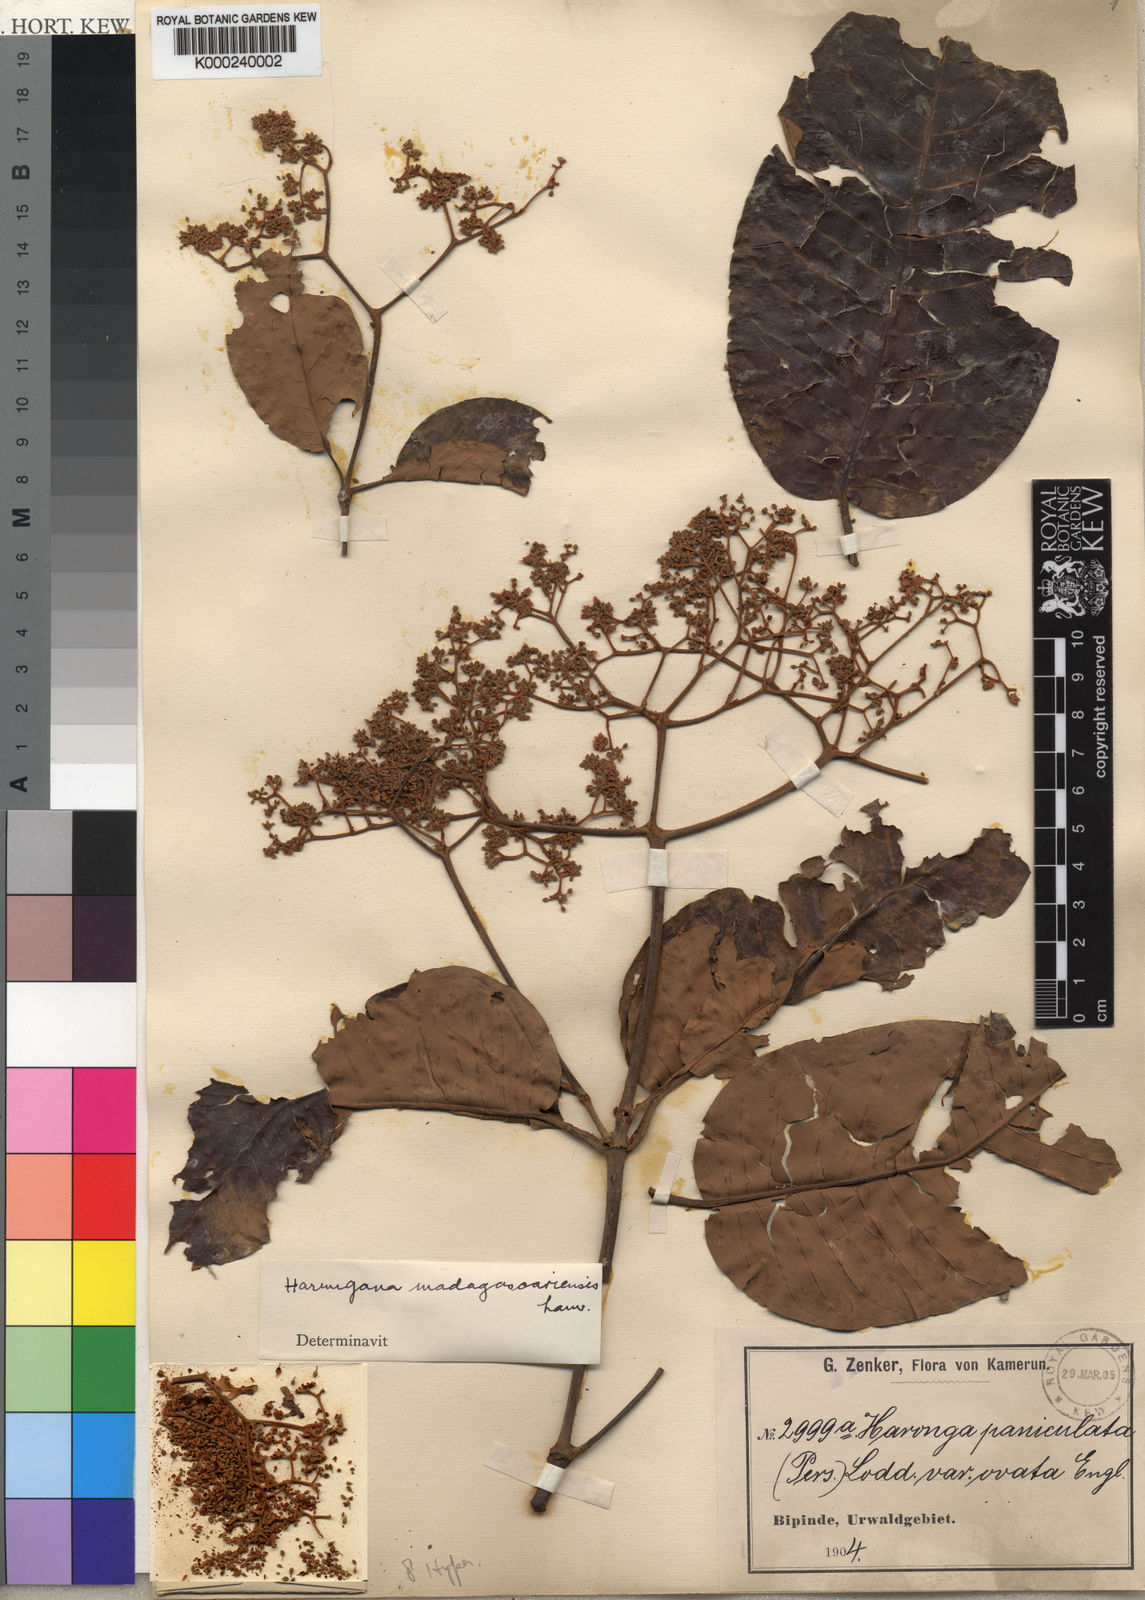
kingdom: Plantae
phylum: Tracheophyta
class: Magnoliopsida
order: Malpighiales
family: Hypericaceae
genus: Harungana
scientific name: Harungana
